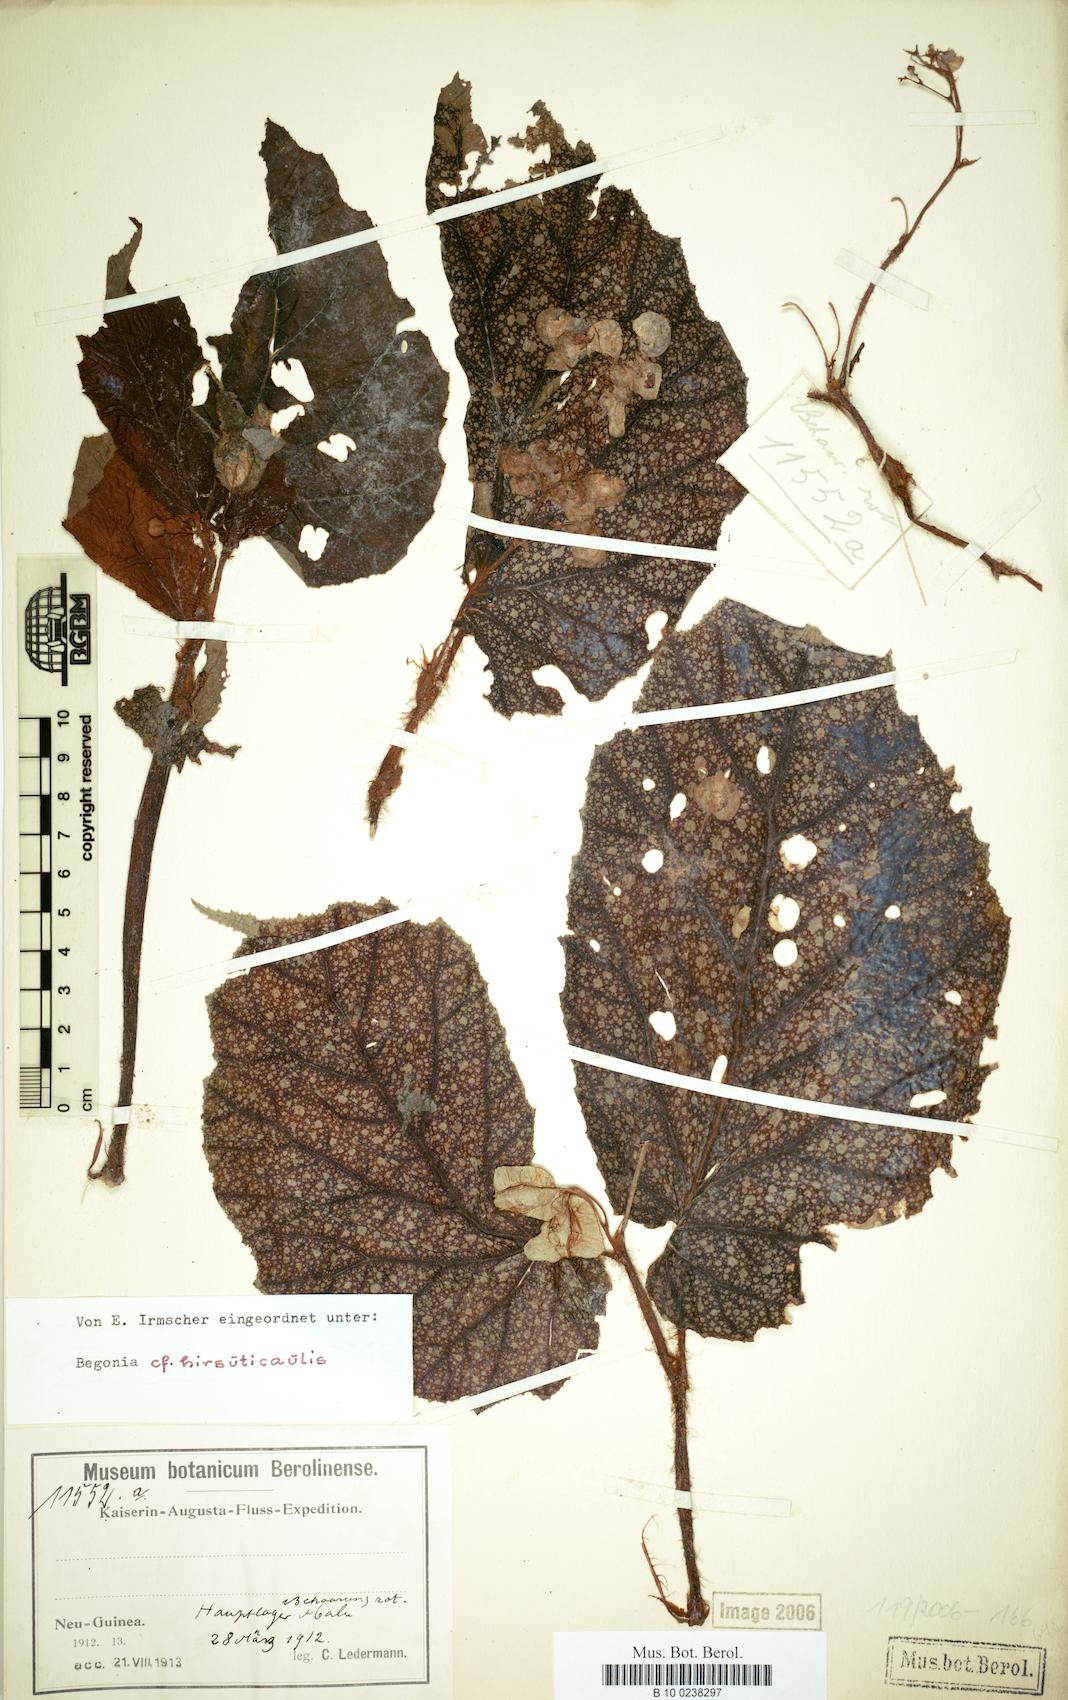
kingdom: Plantae
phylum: Tracheophyta
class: Magnoliopsida
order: Cucurbitales
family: Begoniaceae
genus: Begonia
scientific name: Begonia hirsuticaulis
